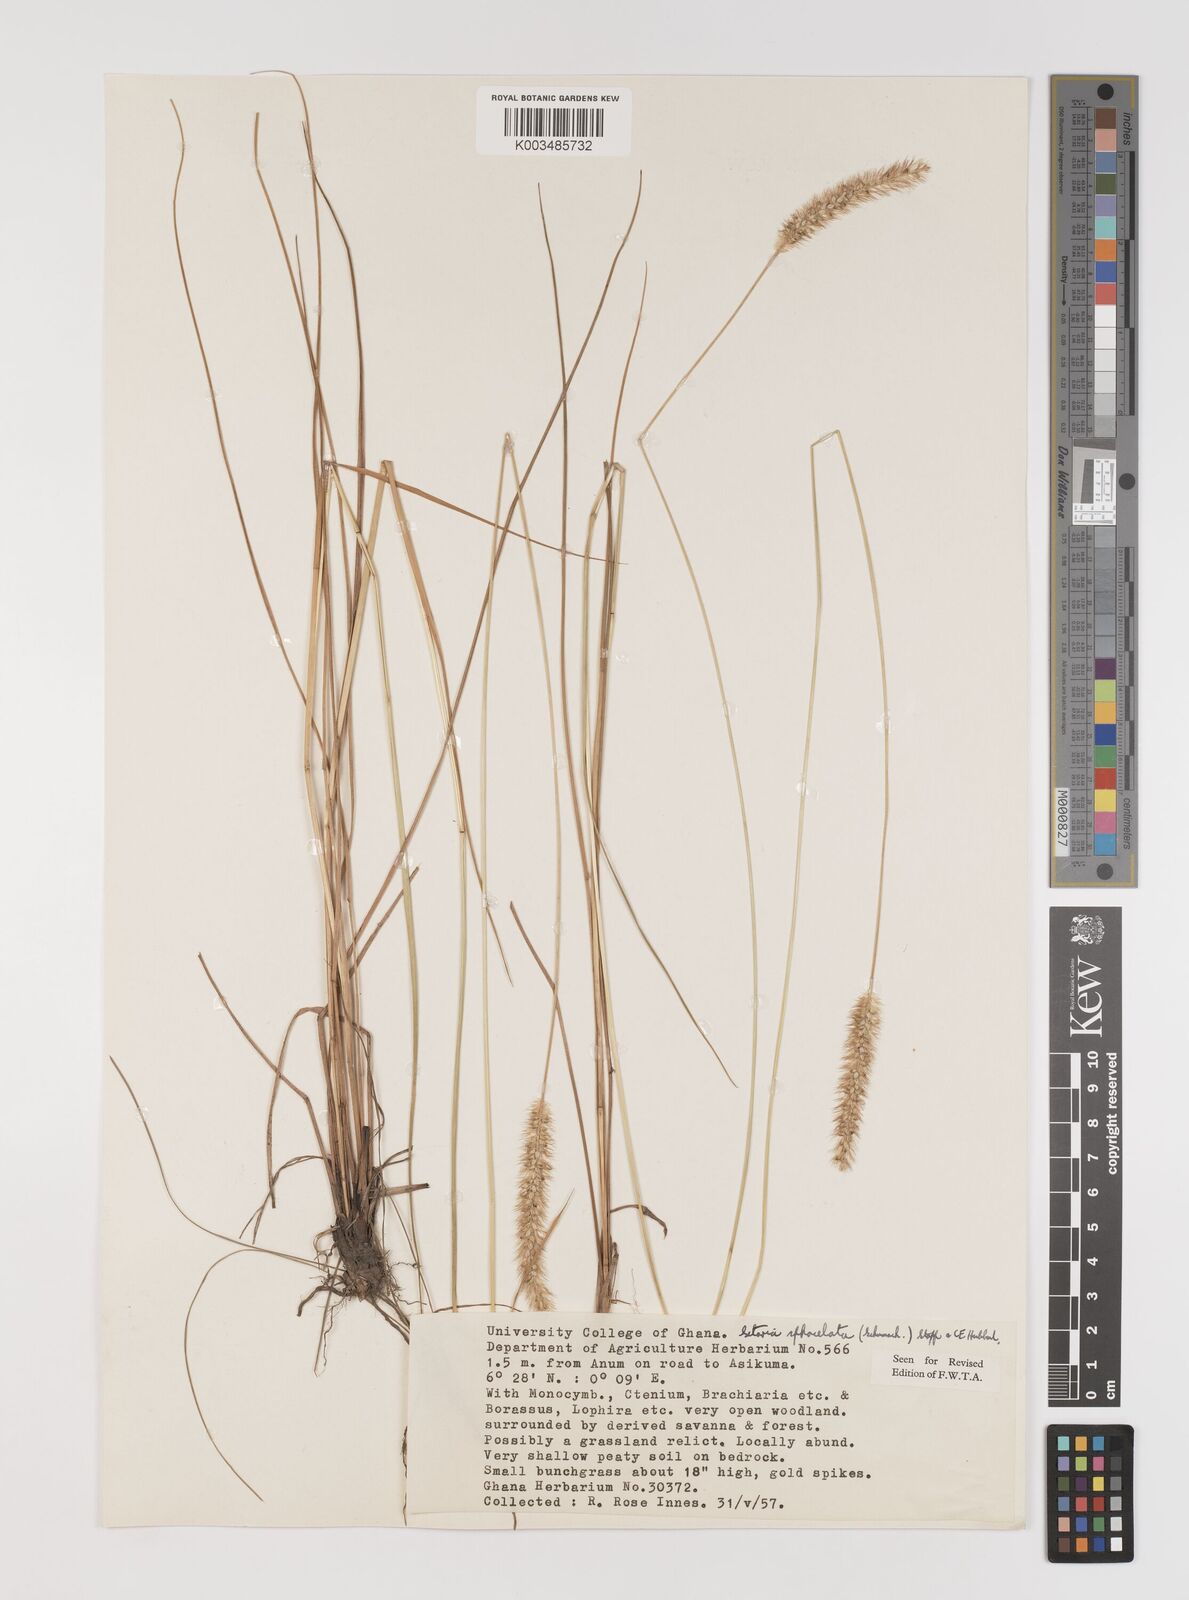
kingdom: Plantae
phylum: Tracheophyta
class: Liliopsida
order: Poales
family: Poaceae
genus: Setaria
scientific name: Setaria sphacelata
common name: African bristlegrass
